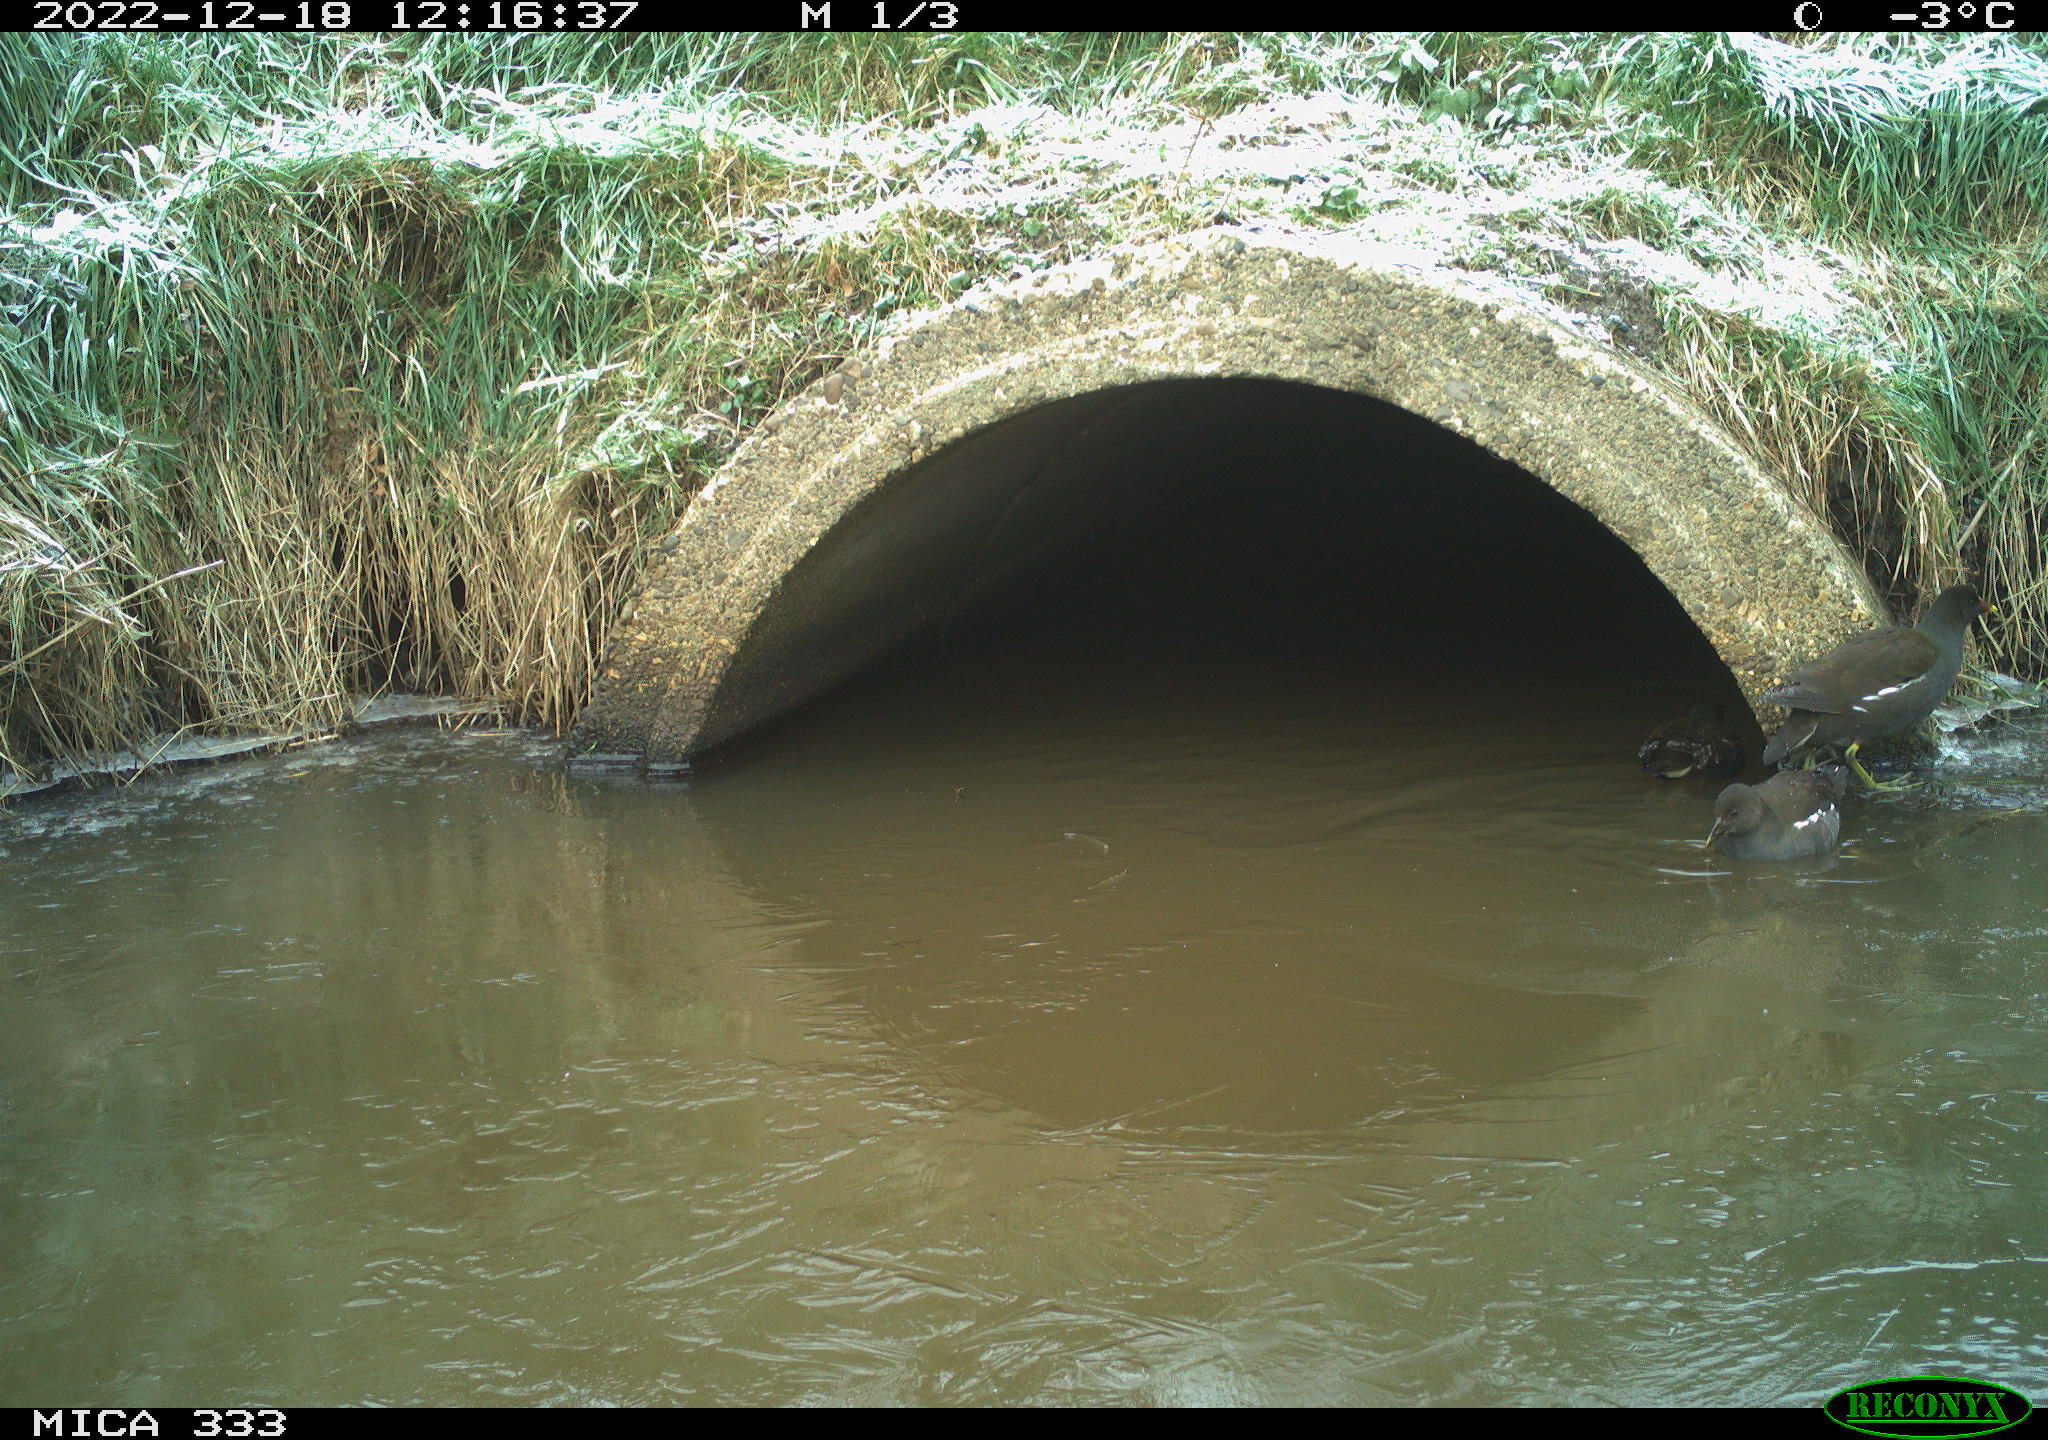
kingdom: Animalia
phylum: Chordata
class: Aves
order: Gruiformes
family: Rallidae
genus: Gallinula
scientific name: Gallinula chloropus
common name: Common moorhen
